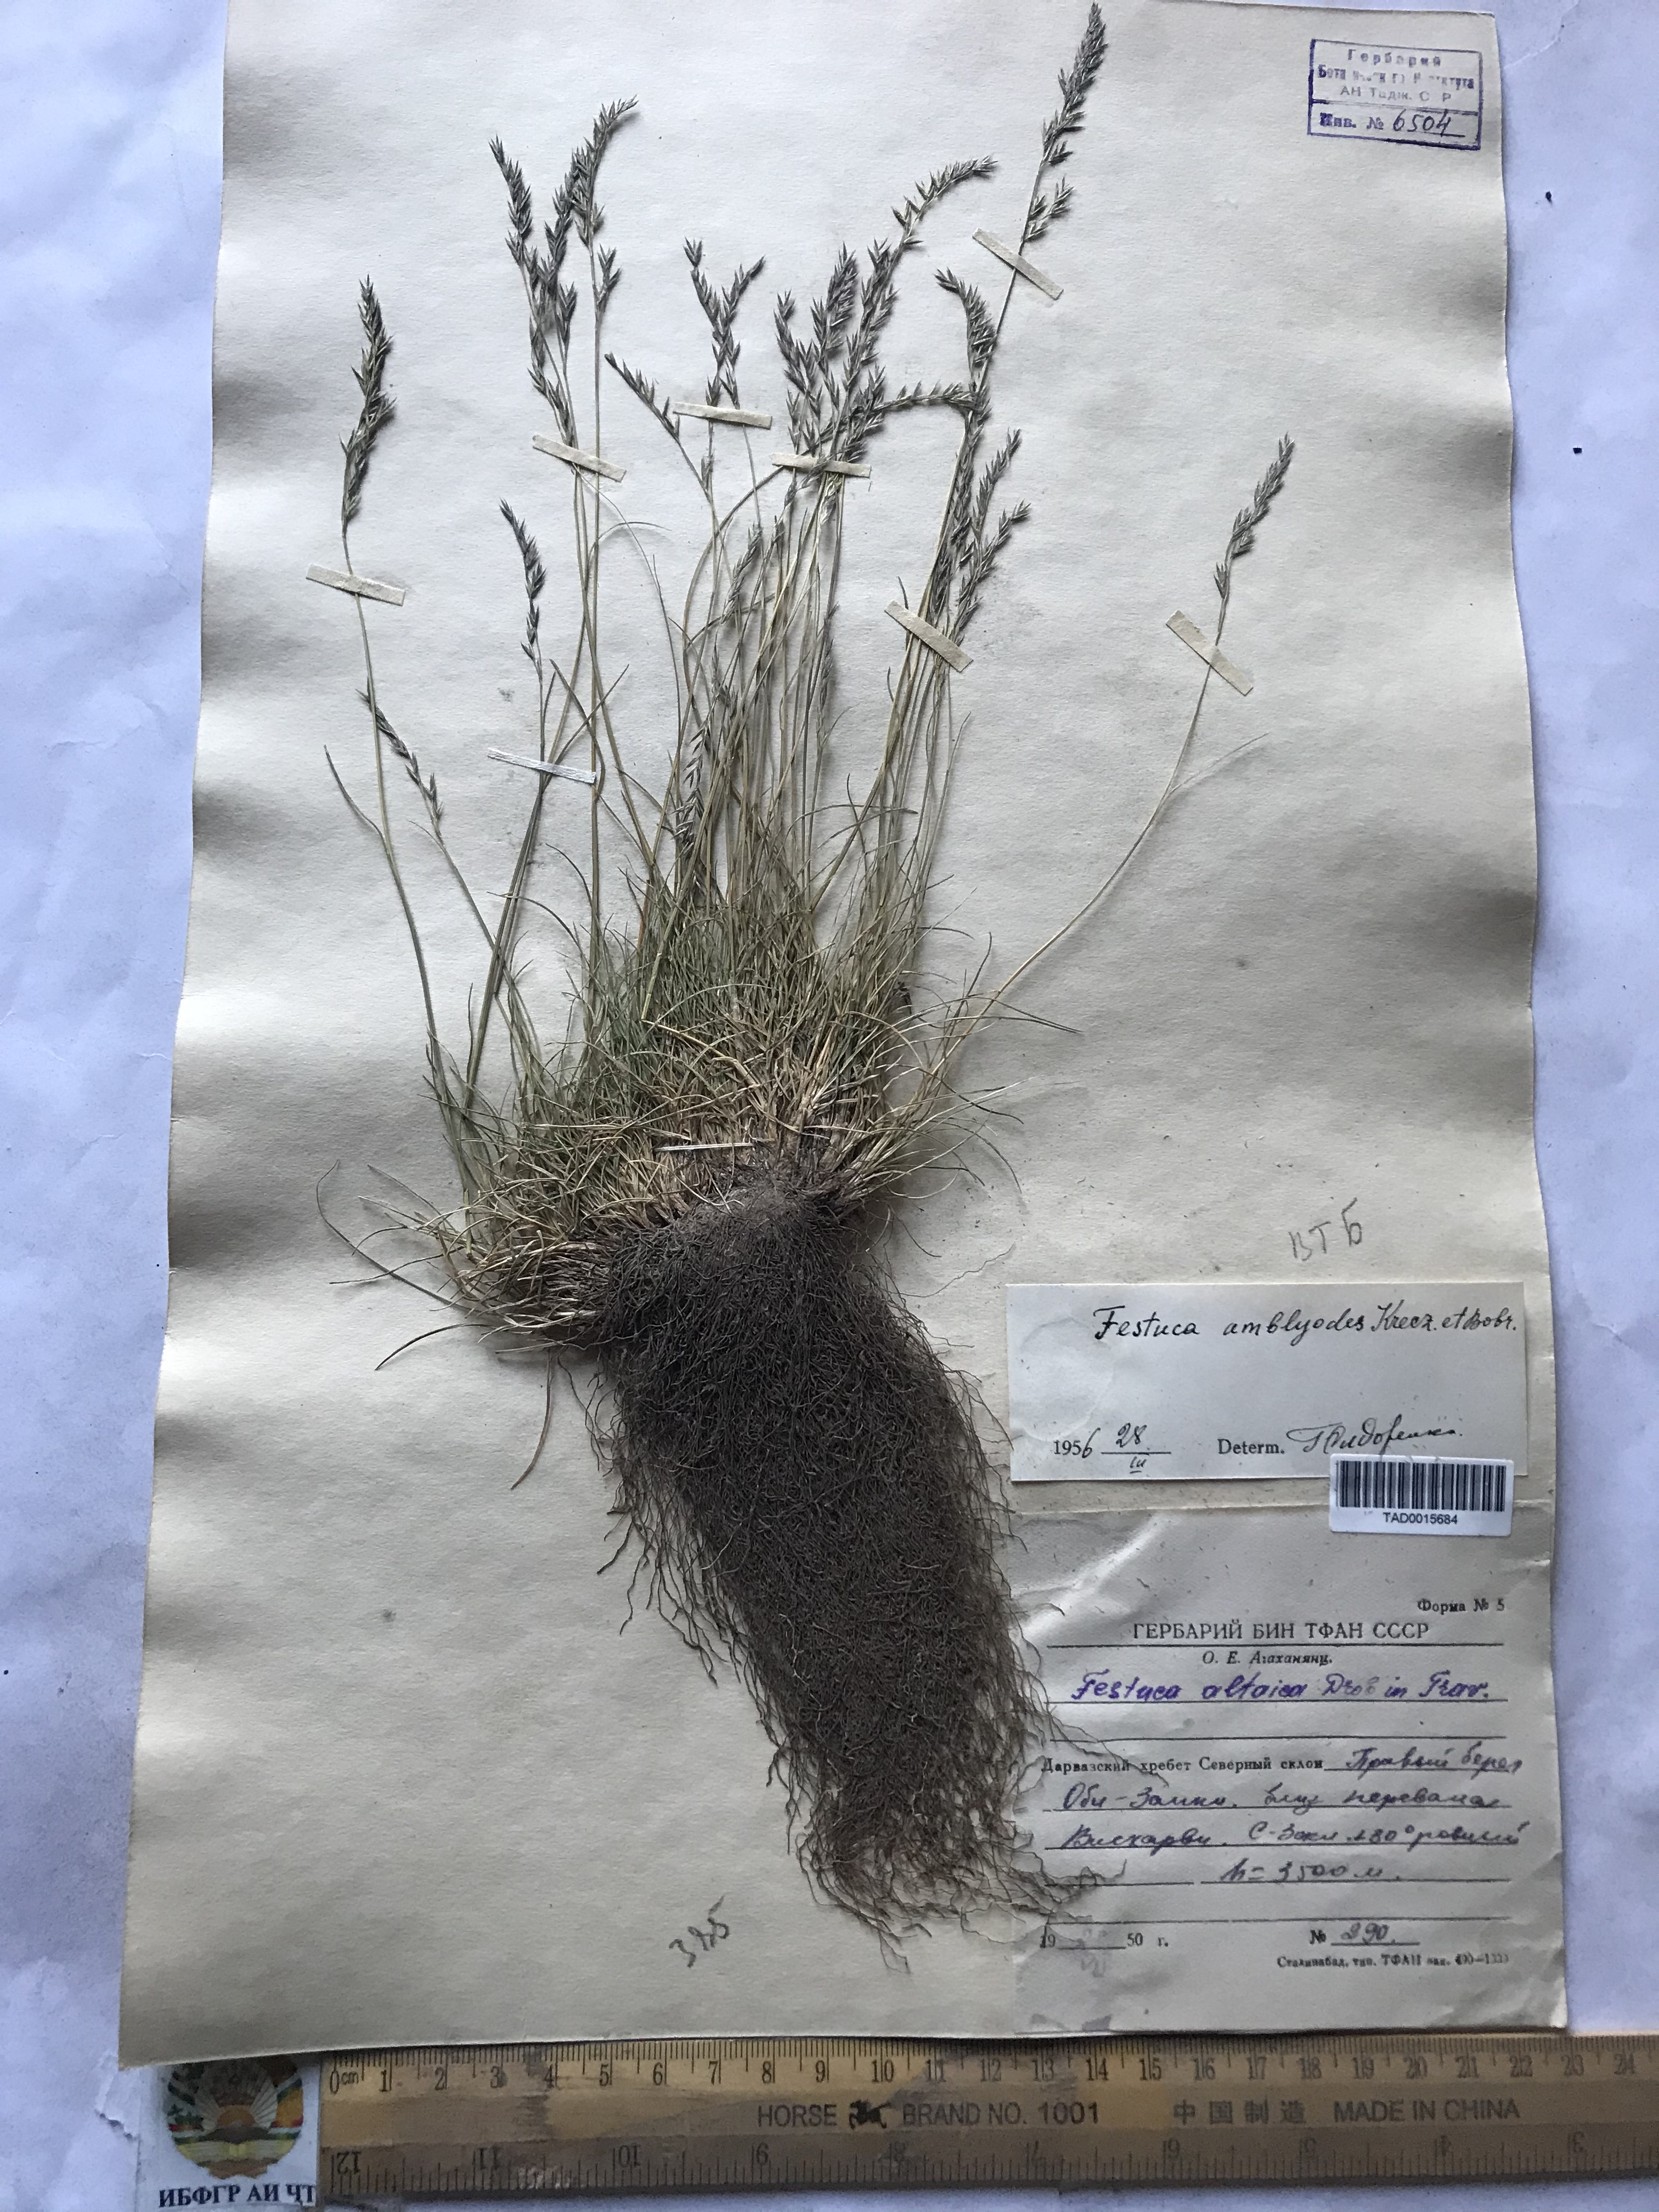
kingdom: Plantae
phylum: Tracheophyta
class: Liliopsida
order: Poales
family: Poaceae
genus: Festuca
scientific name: Festuca altaica
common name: Northern rough fescue
